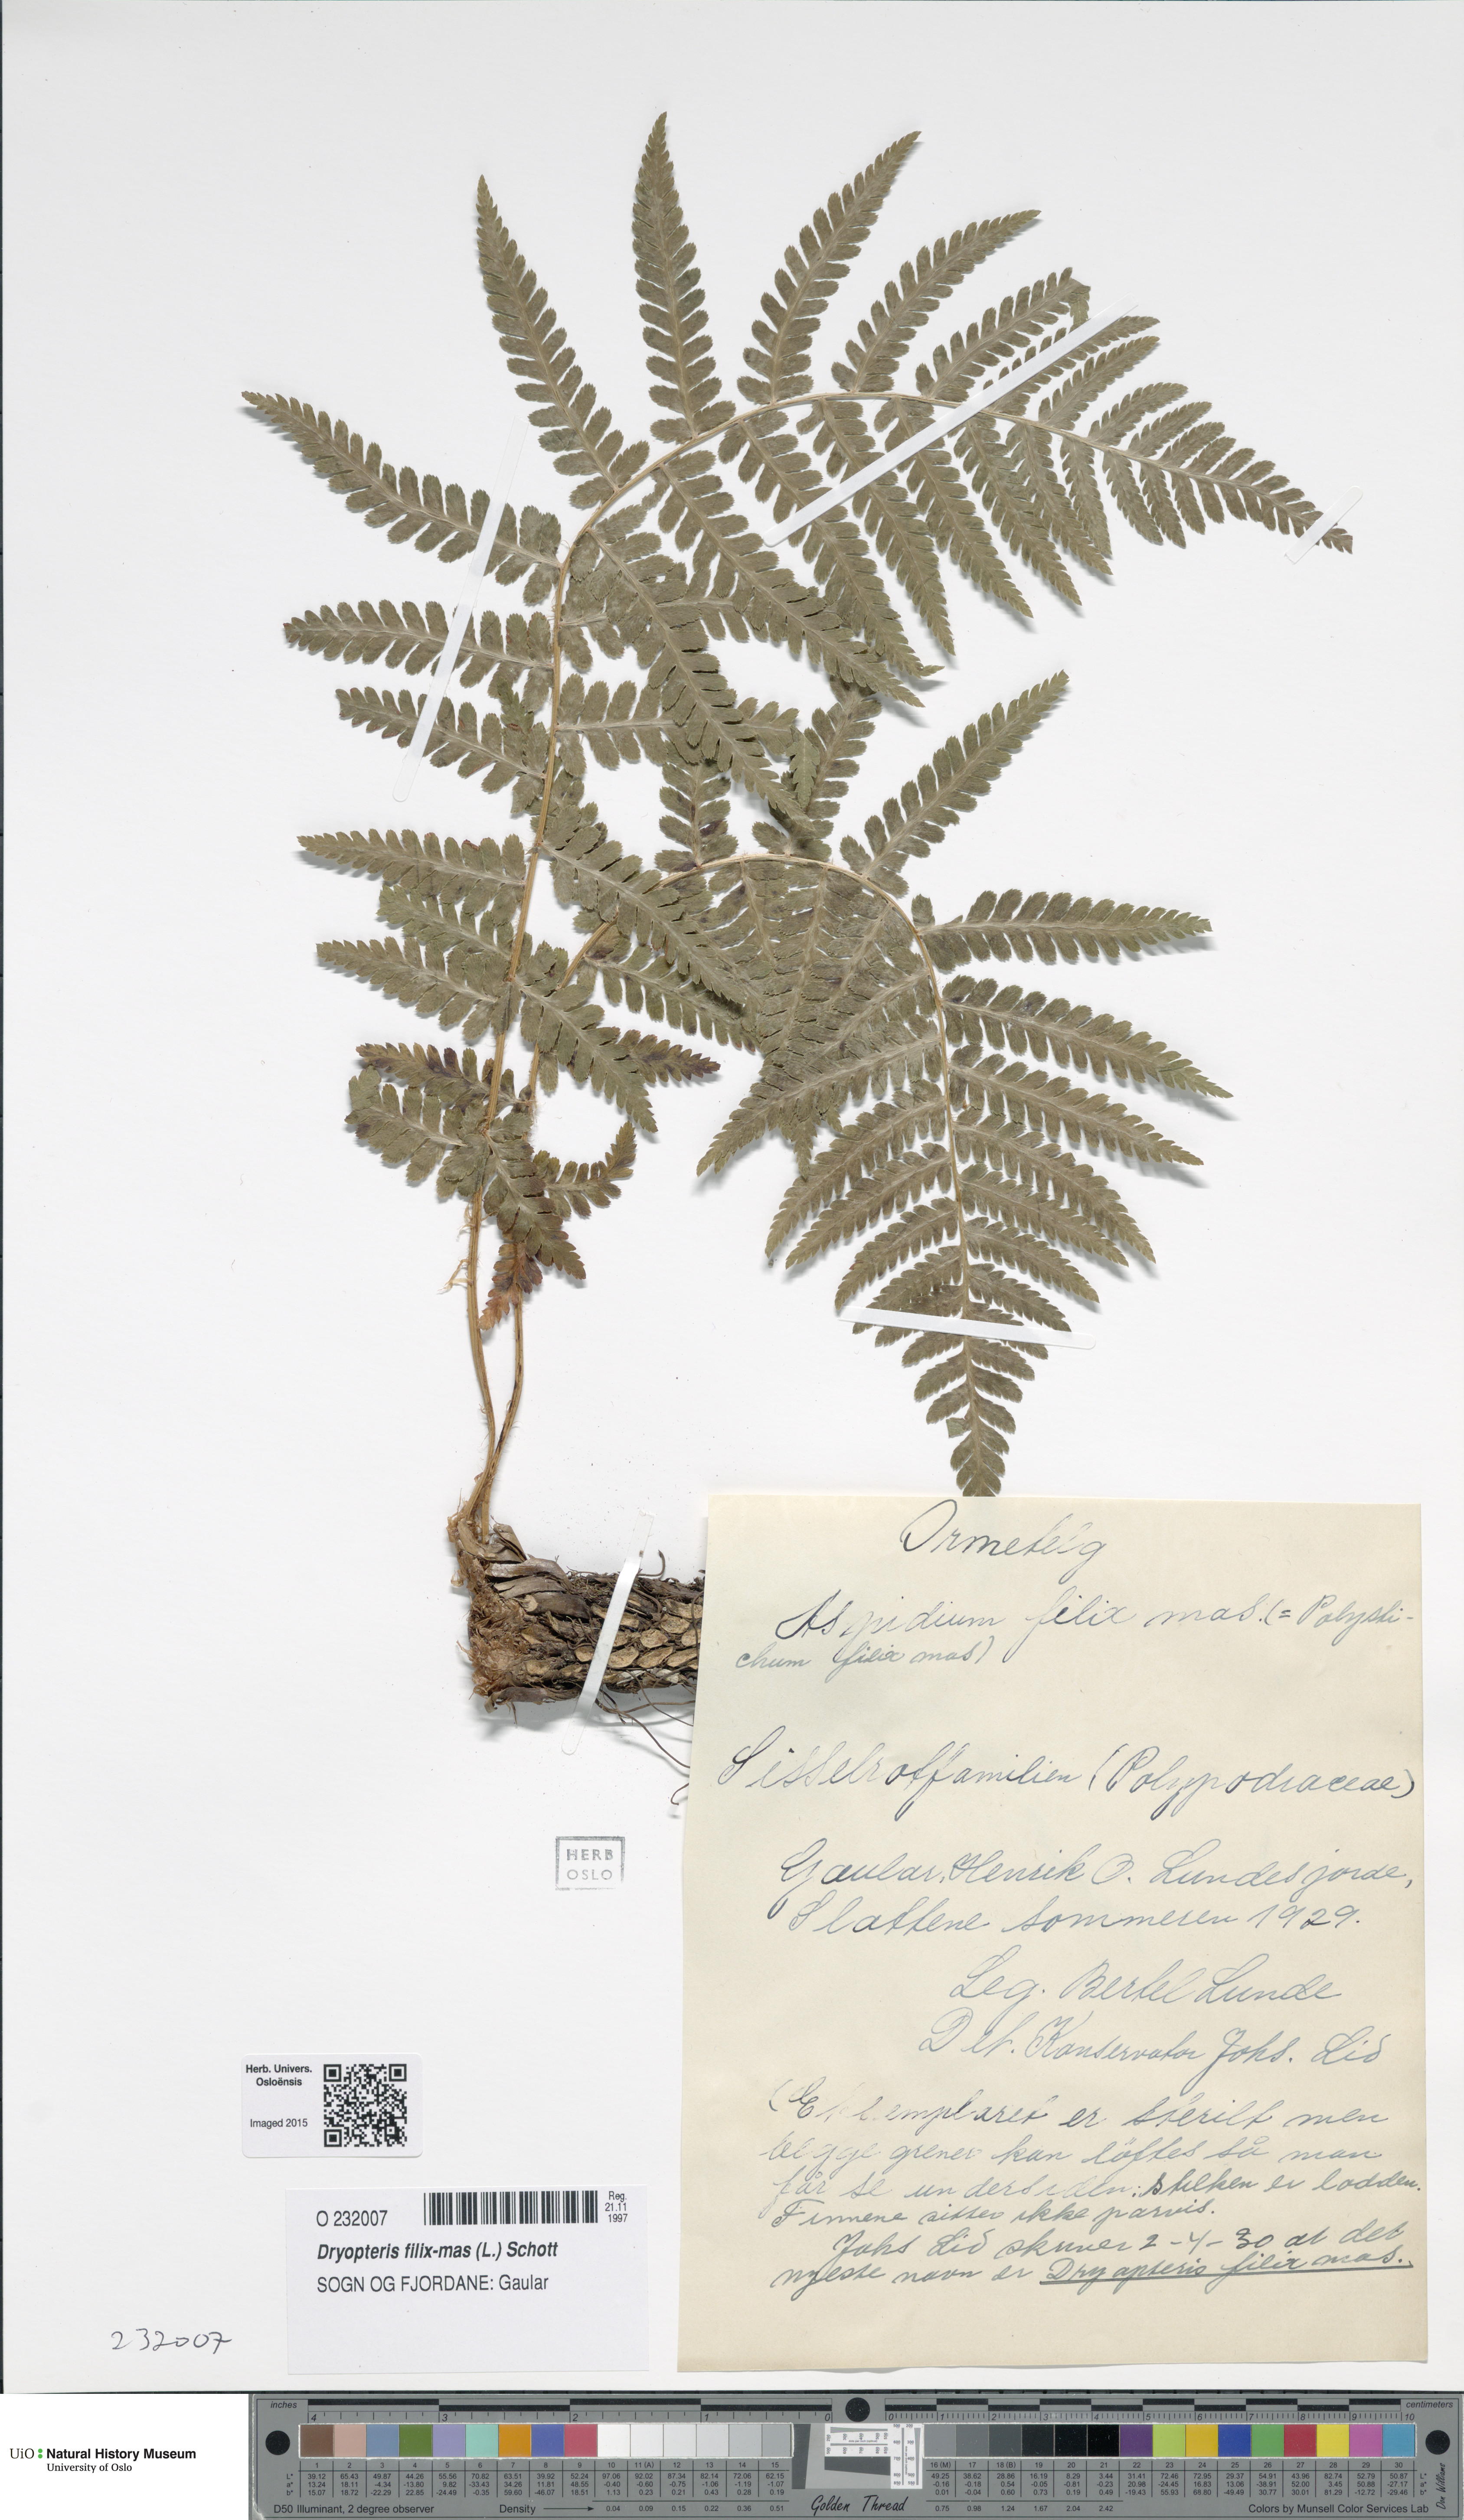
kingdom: Plantae
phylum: Tracheophyta
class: Polypodiopsida
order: Polypodiales
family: Dryopteridaceae
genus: Dryopteris
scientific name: Dryopteris filix-mas
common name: Male fern
